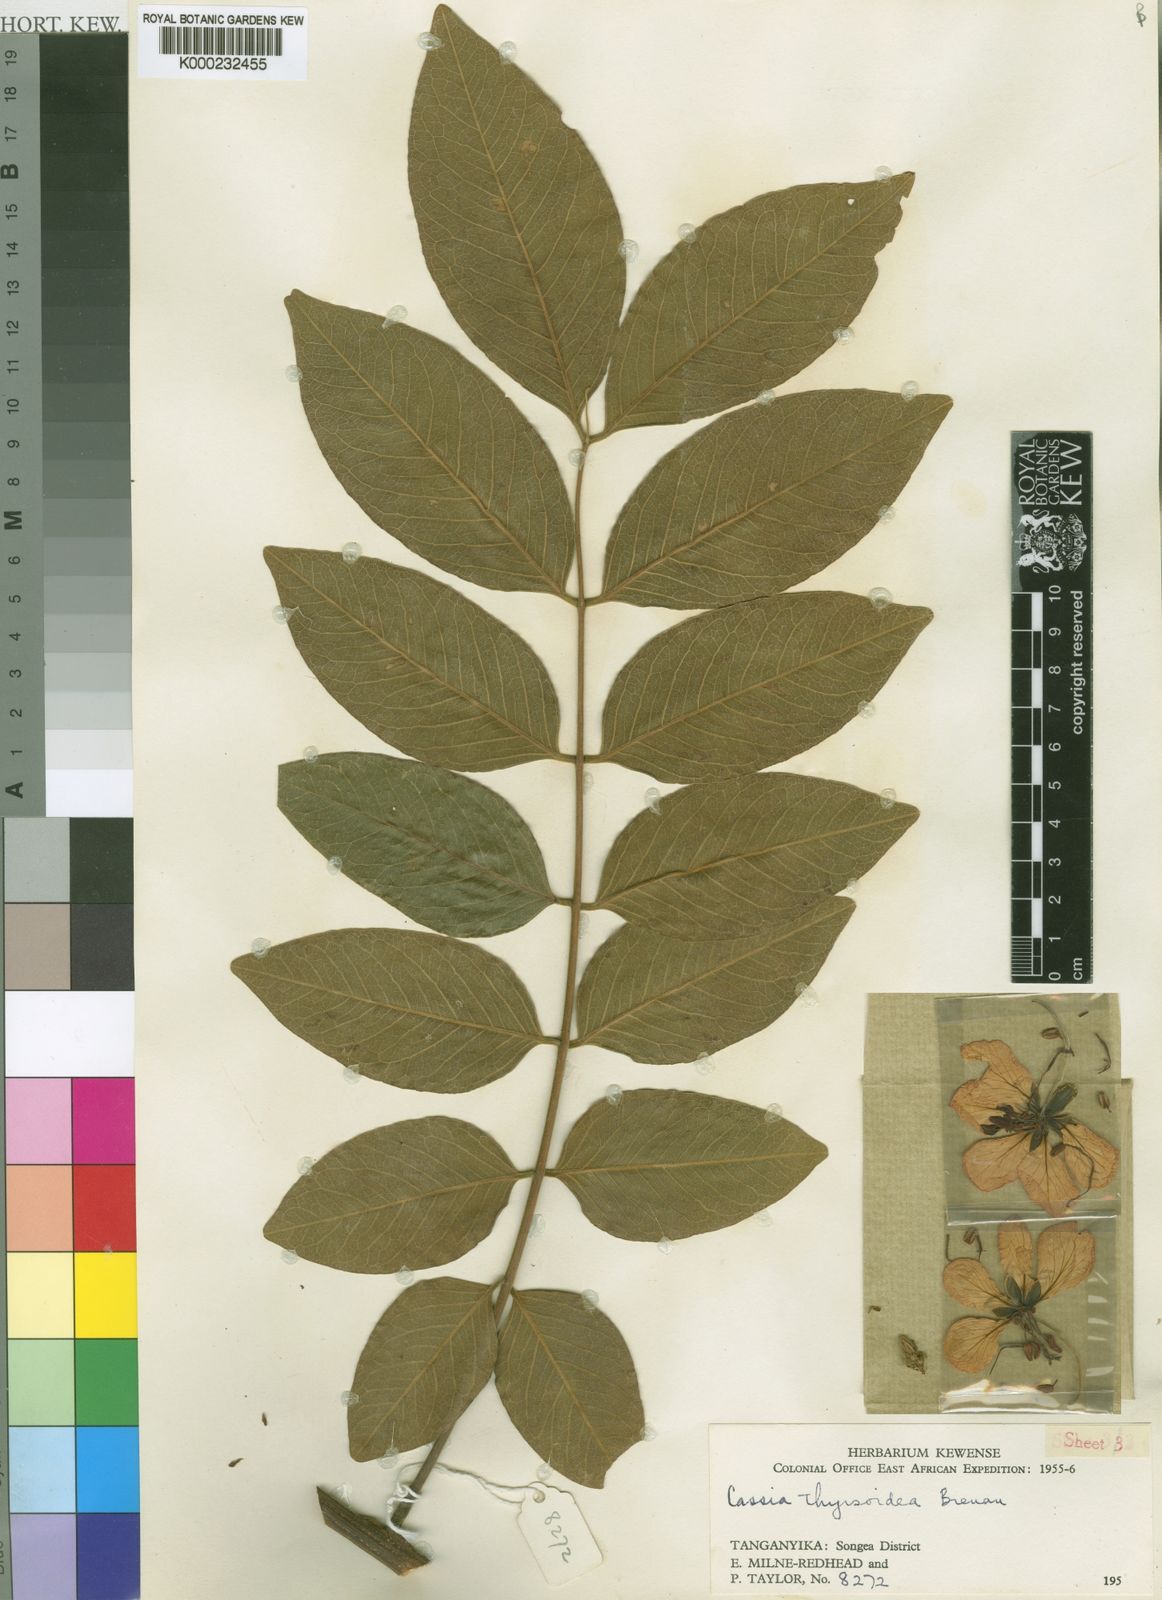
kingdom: Plantae
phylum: Tracheophyta
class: Magnoliopsida
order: Fabales
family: Fabaceae
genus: Cassia
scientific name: Cassia thyrsoidea
